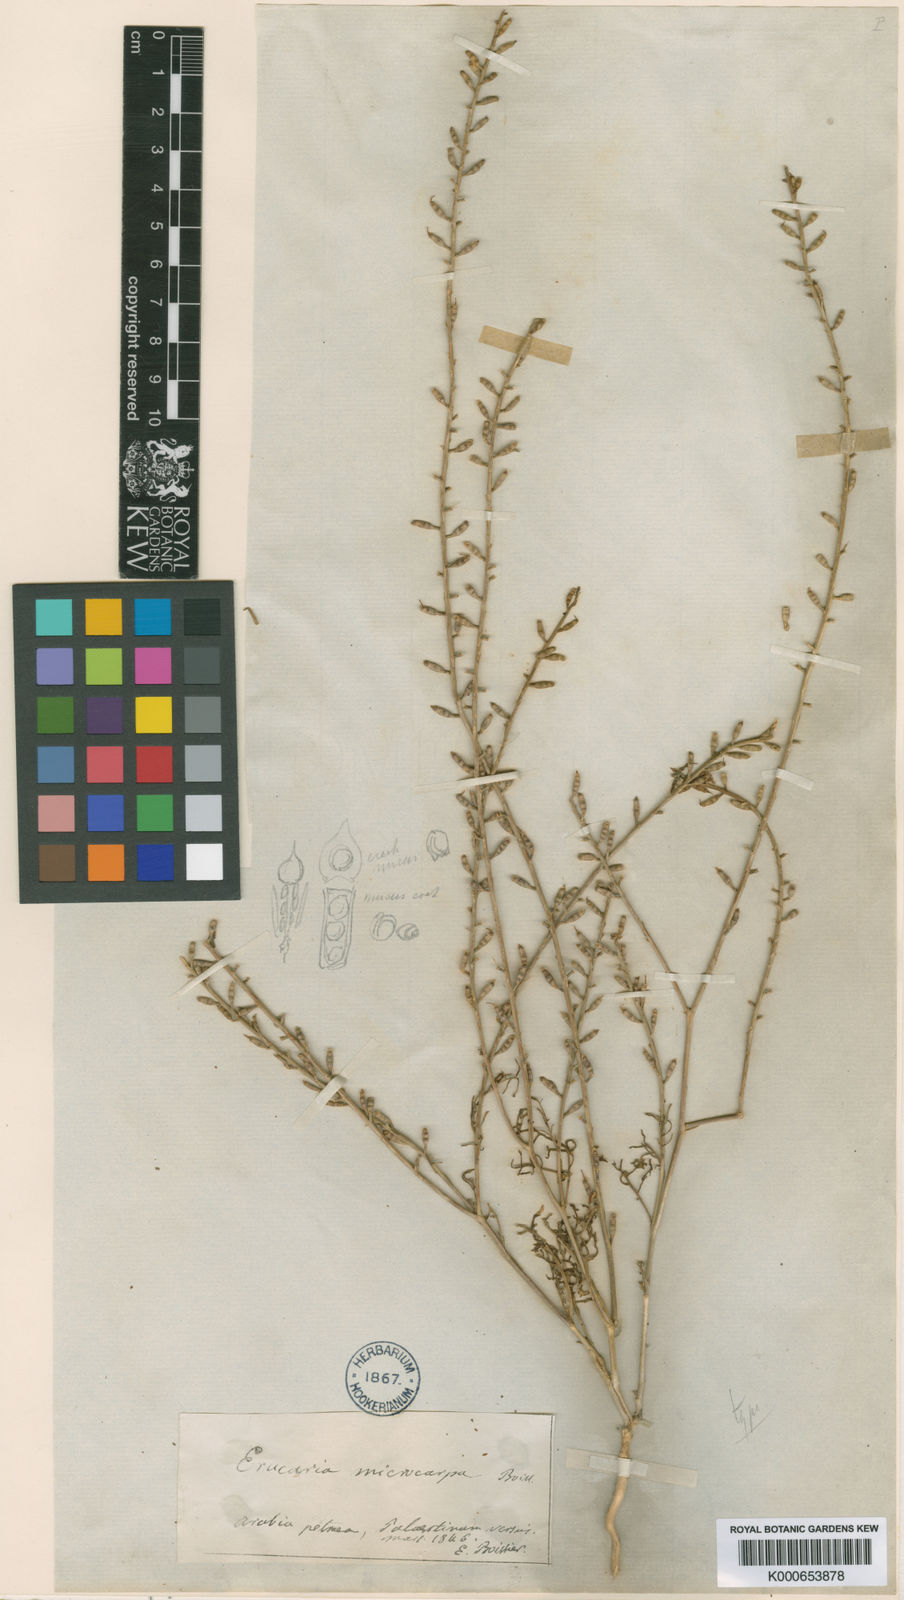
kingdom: Plantae
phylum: Tracheophyta
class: Magnoliopsida
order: Brassicales
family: Brassicaceae
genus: Erucaria
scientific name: Erucaria microcarpa
